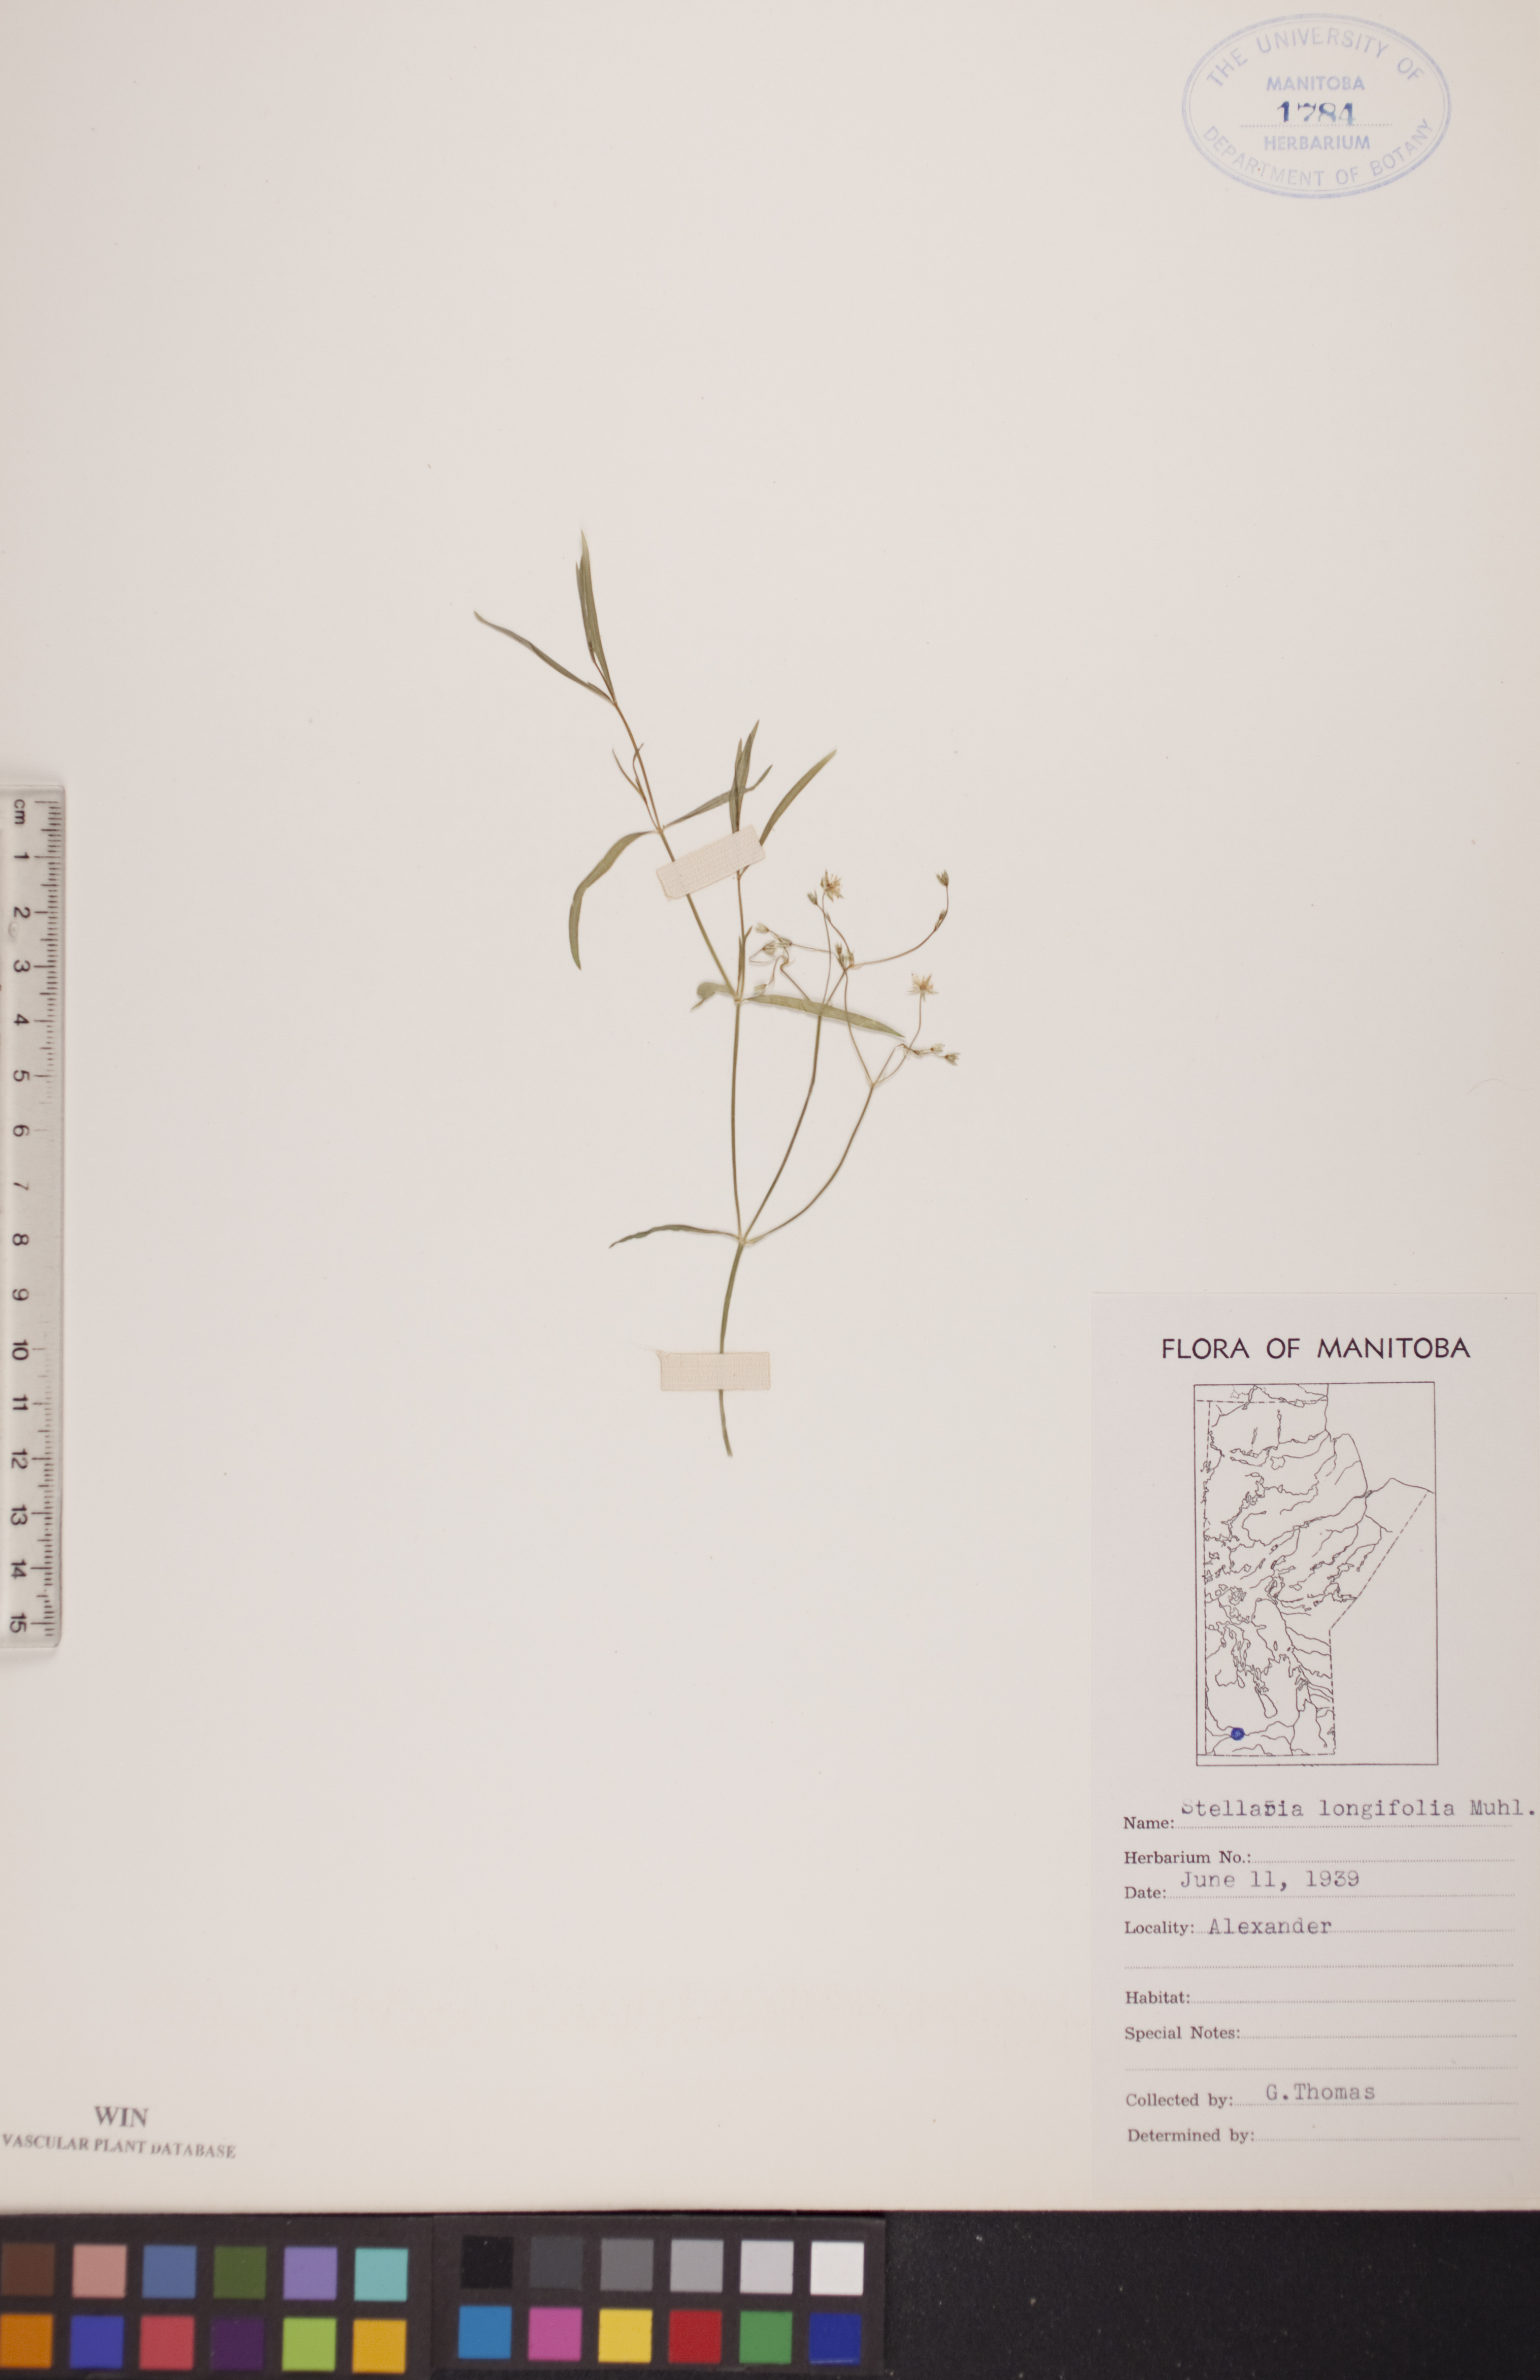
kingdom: Plantae
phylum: Tracheophyta
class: Magnoliopsida
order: Caryophyllales
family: Caryophyllaceae
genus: Stellaria
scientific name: Stellaria longifolia
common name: Long-leaved chickweed
